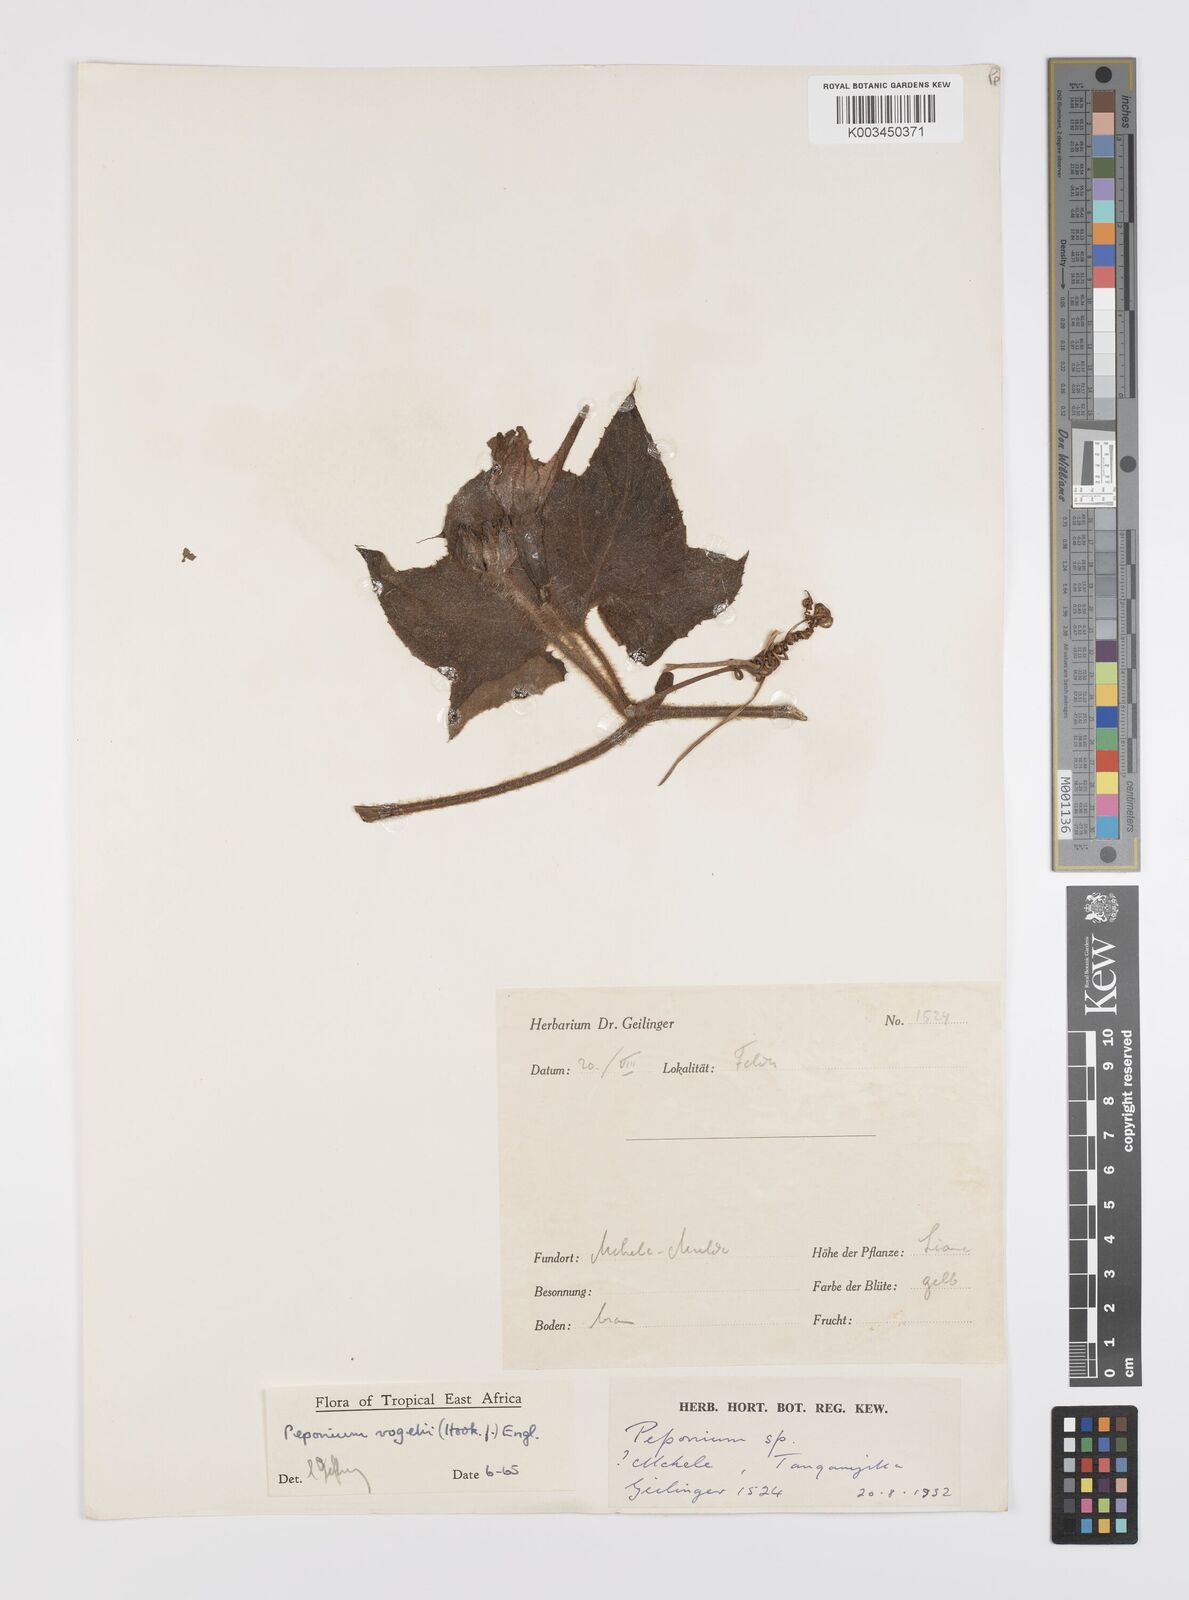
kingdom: Plantae
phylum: Tracheophyta
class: Magnoliopsida
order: Cucurbitales
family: Cucurbitaceae
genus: Peponium
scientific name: Peponium vogelii
